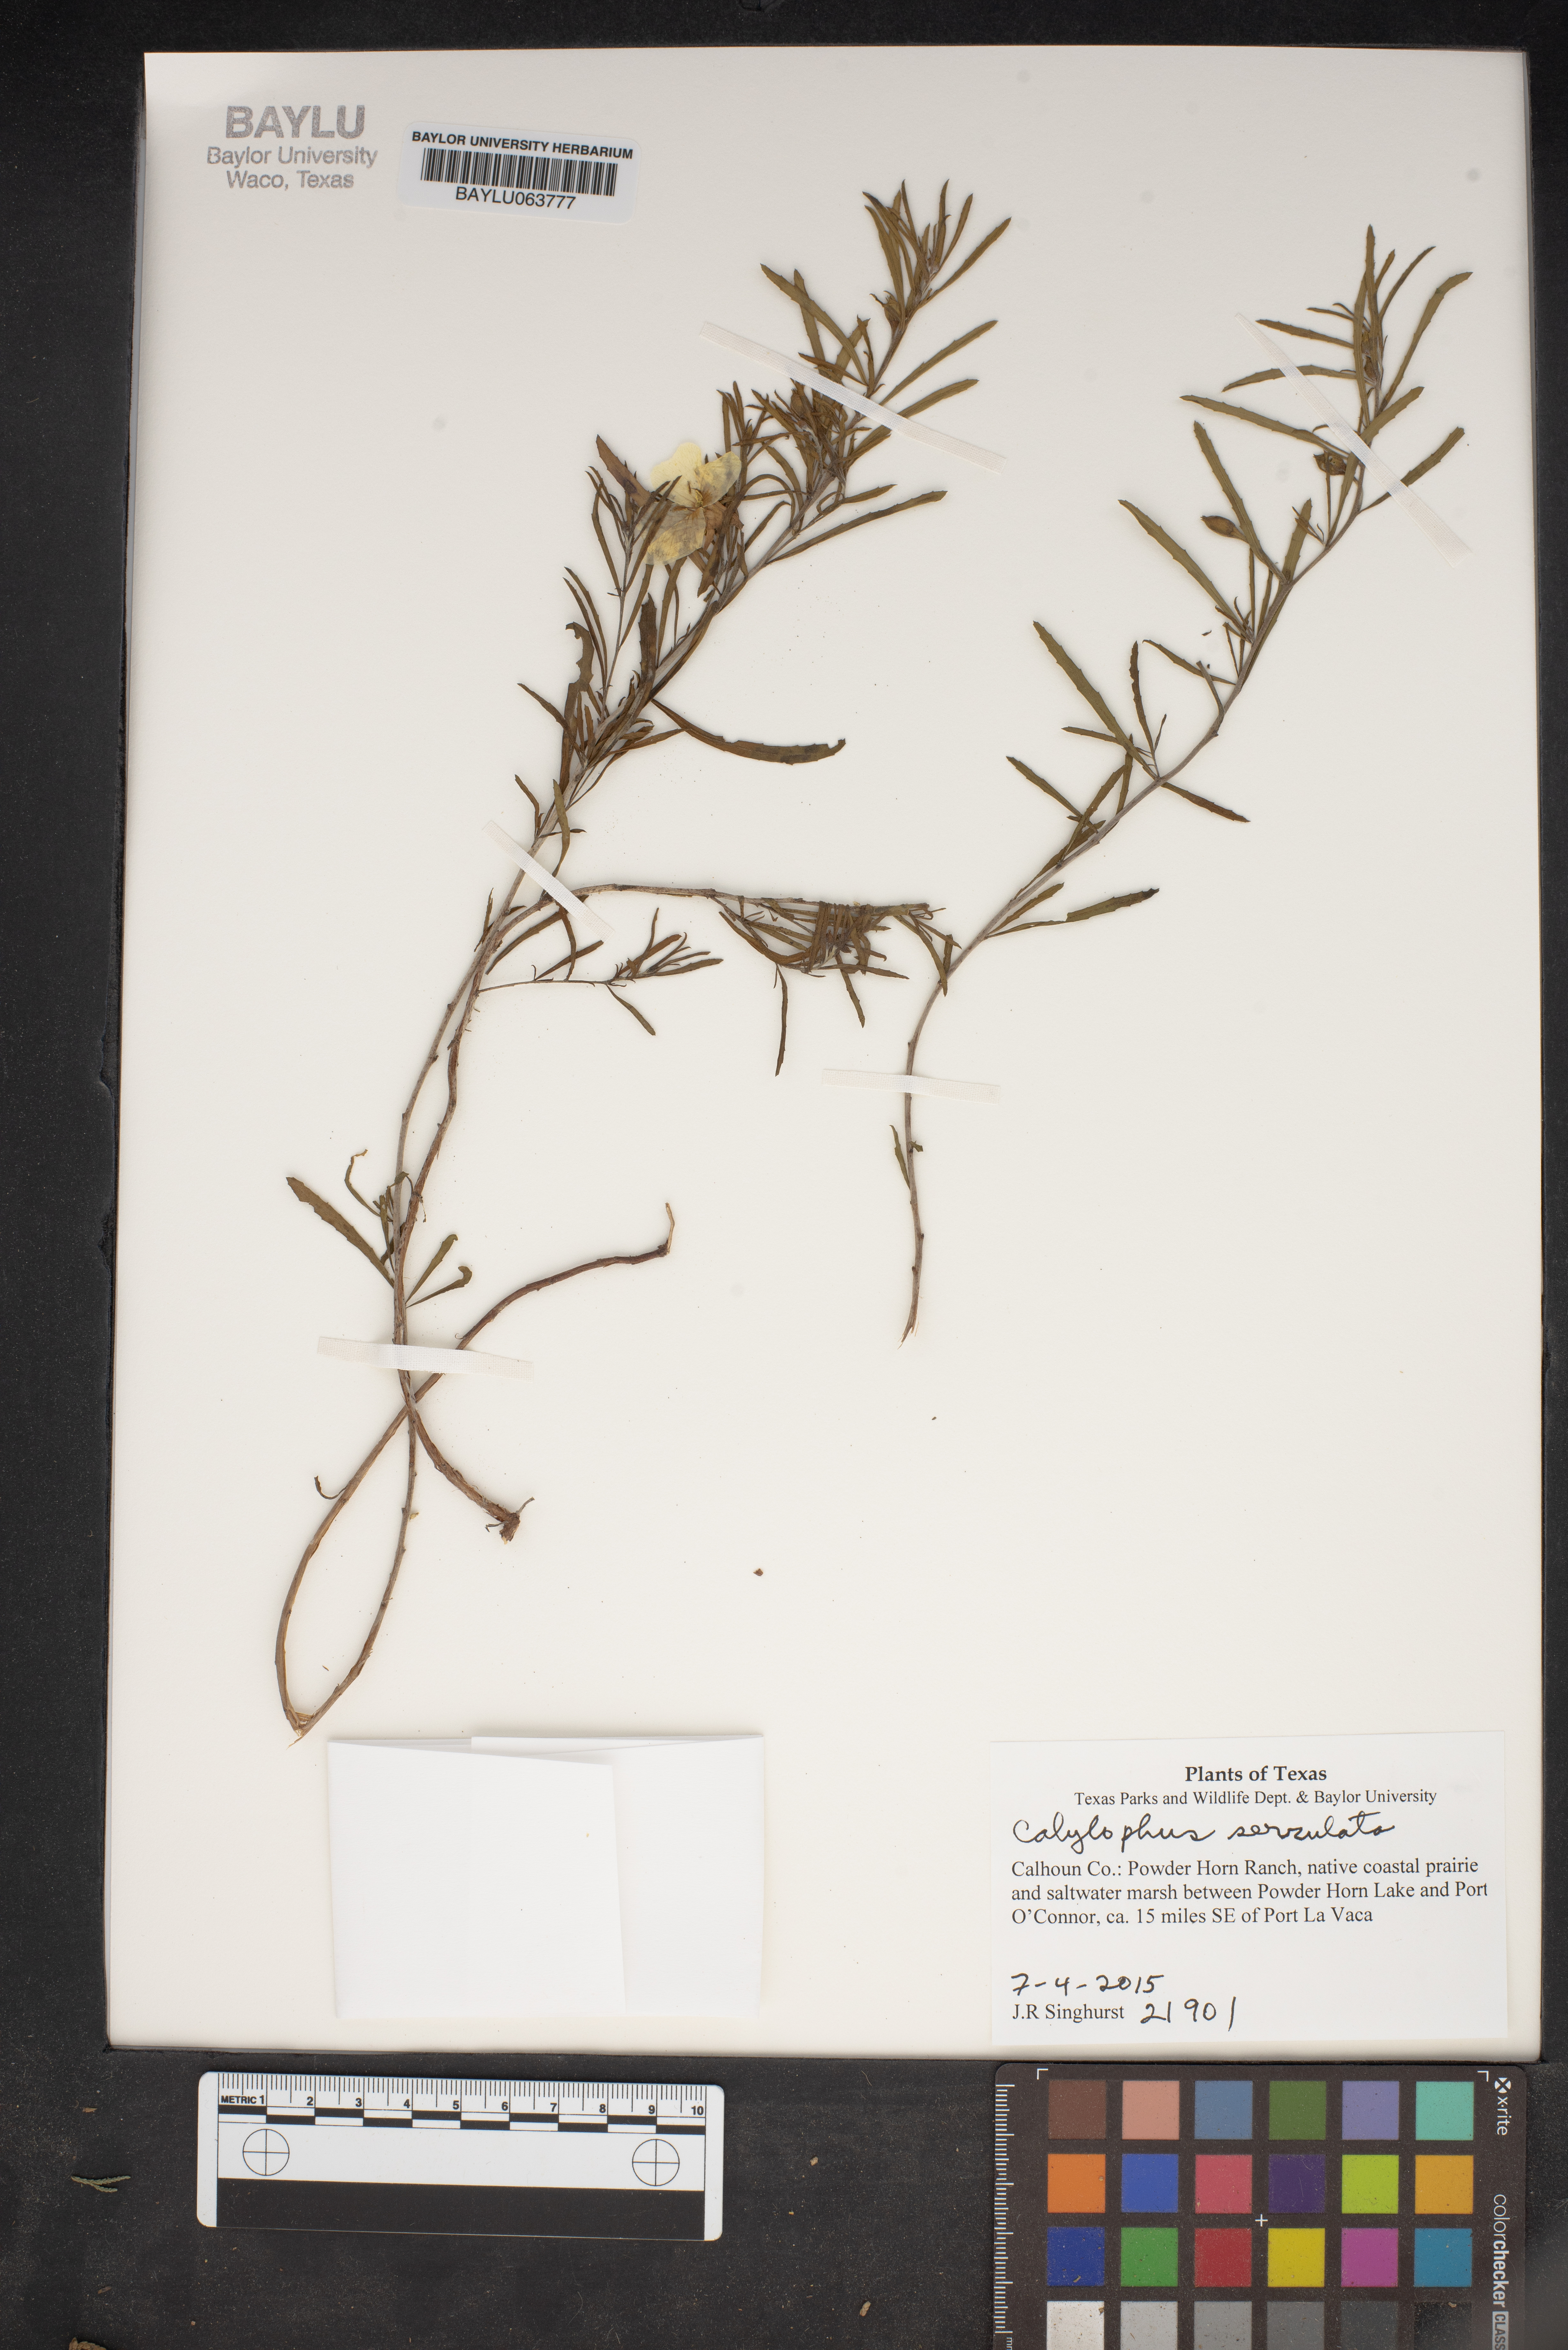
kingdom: Plantae
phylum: Tracheophyta
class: Magnoliopsida
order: Myrtales
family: Onagraceae
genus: Oenothera
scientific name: Oenothera serrulata
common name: Half-shrub calylophus
